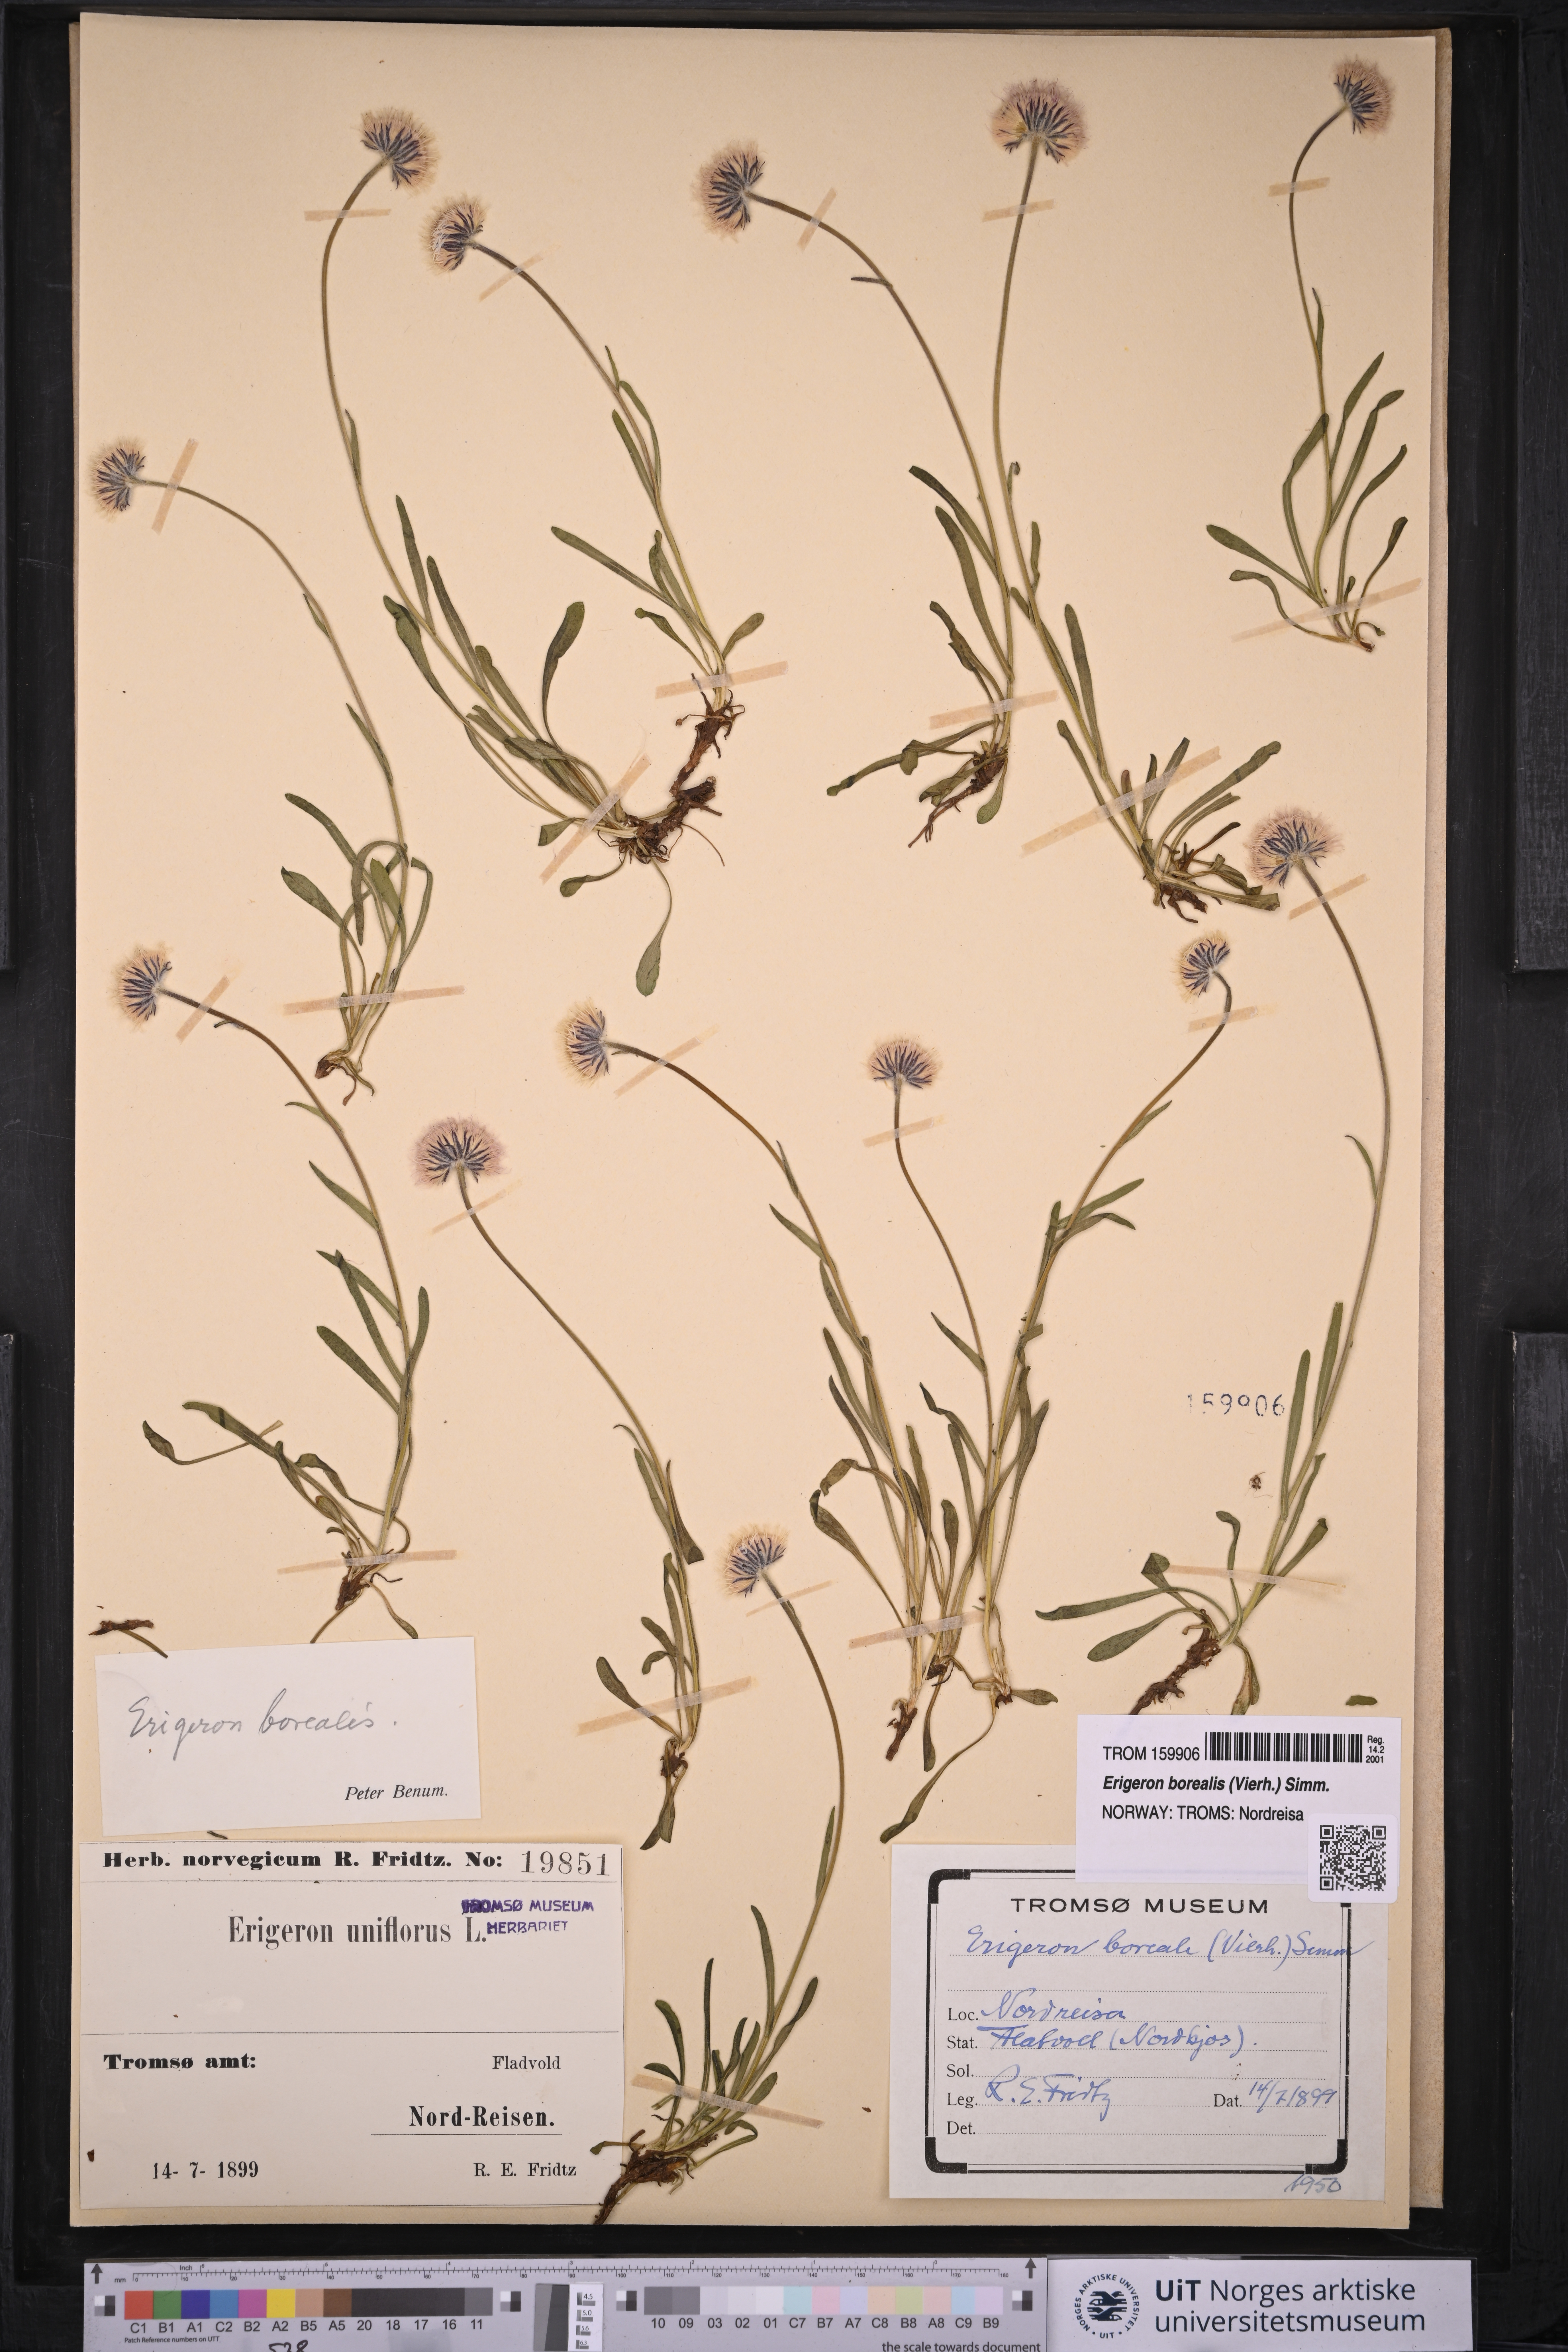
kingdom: Plantae
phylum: Tracheophyta
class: Magnoliopsida
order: Asterales
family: Asteraceae
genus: Erigeron
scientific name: Erigeron borealis
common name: Alpine fleabane
